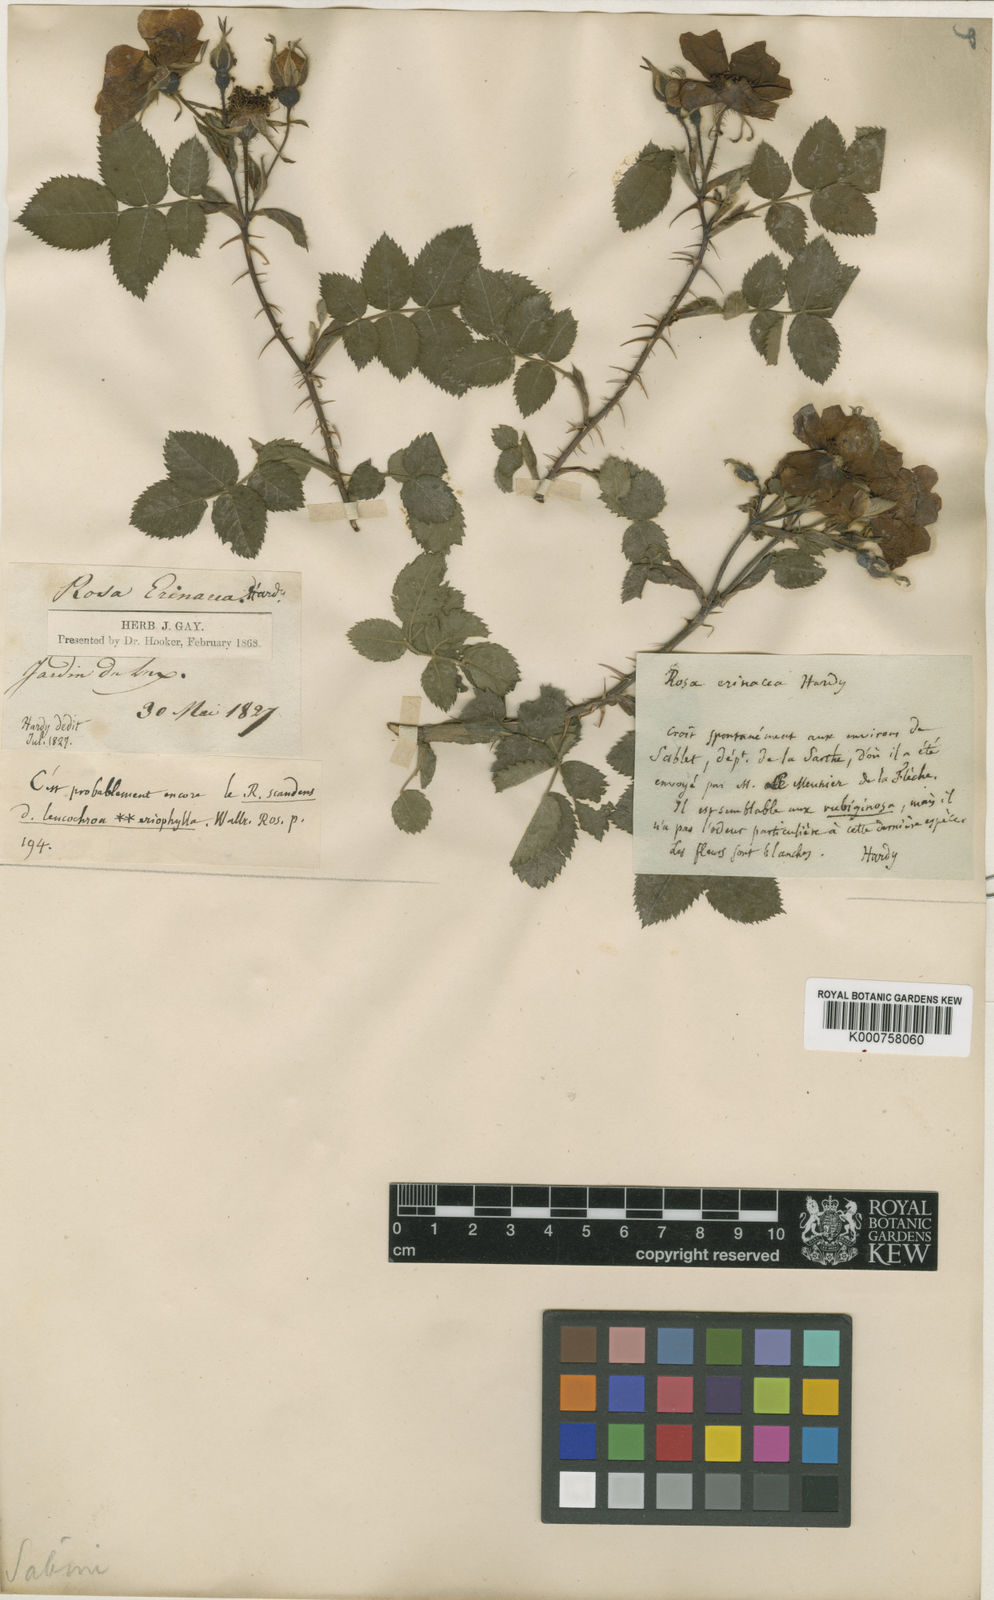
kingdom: Plantae
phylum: Tracheophyta
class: Magnoliopsida
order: Rosales
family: Rosaceae
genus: Rosa
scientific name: Rosa spinosissima
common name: Burnet rose
